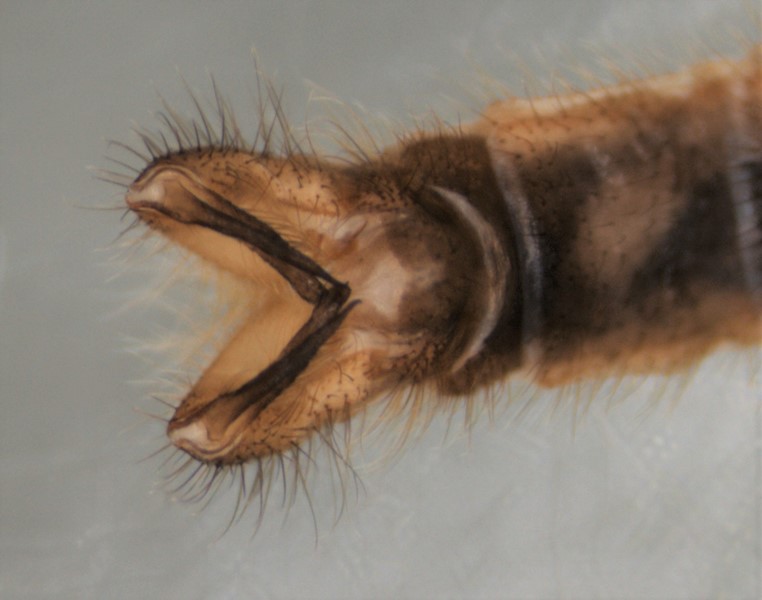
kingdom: Animalia
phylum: Arthropoda
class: Insecta
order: Diptera
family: Limoniidae
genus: Pseudolimnophila
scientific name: Pseudolimnophila sepium
